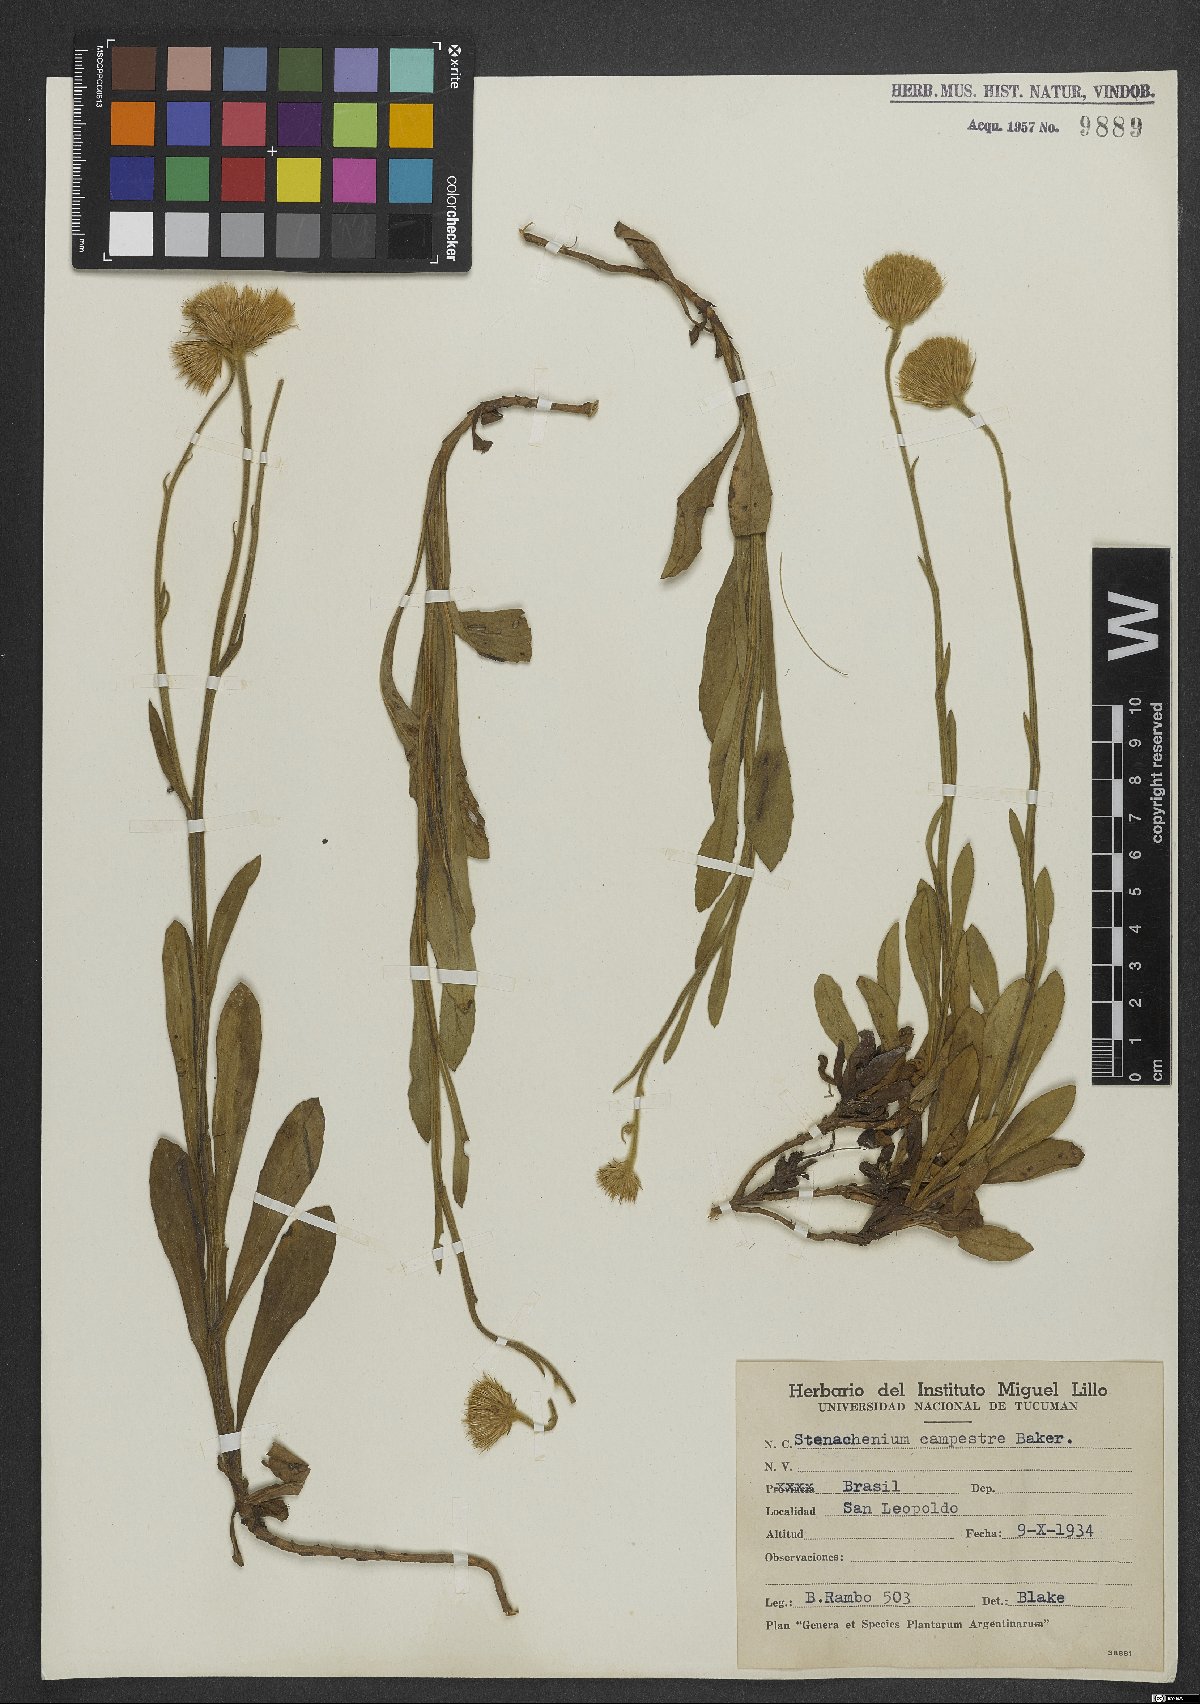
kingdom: Plantae
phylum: Tracheophyta
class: Magnoliopsida
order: Asterales
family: Asteraceae
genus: Stenachaenium
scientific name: Stenachaenium campestre
